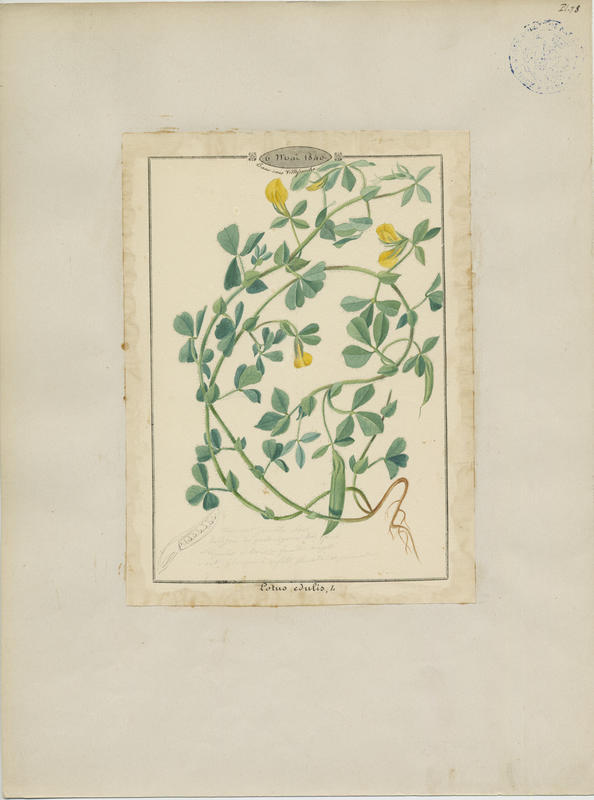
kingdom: Plantae
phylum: Tracheophyta
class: Magnoliopsida
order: Fabales
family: Fabaceae
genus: Lotus
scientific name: Lotus edulis
